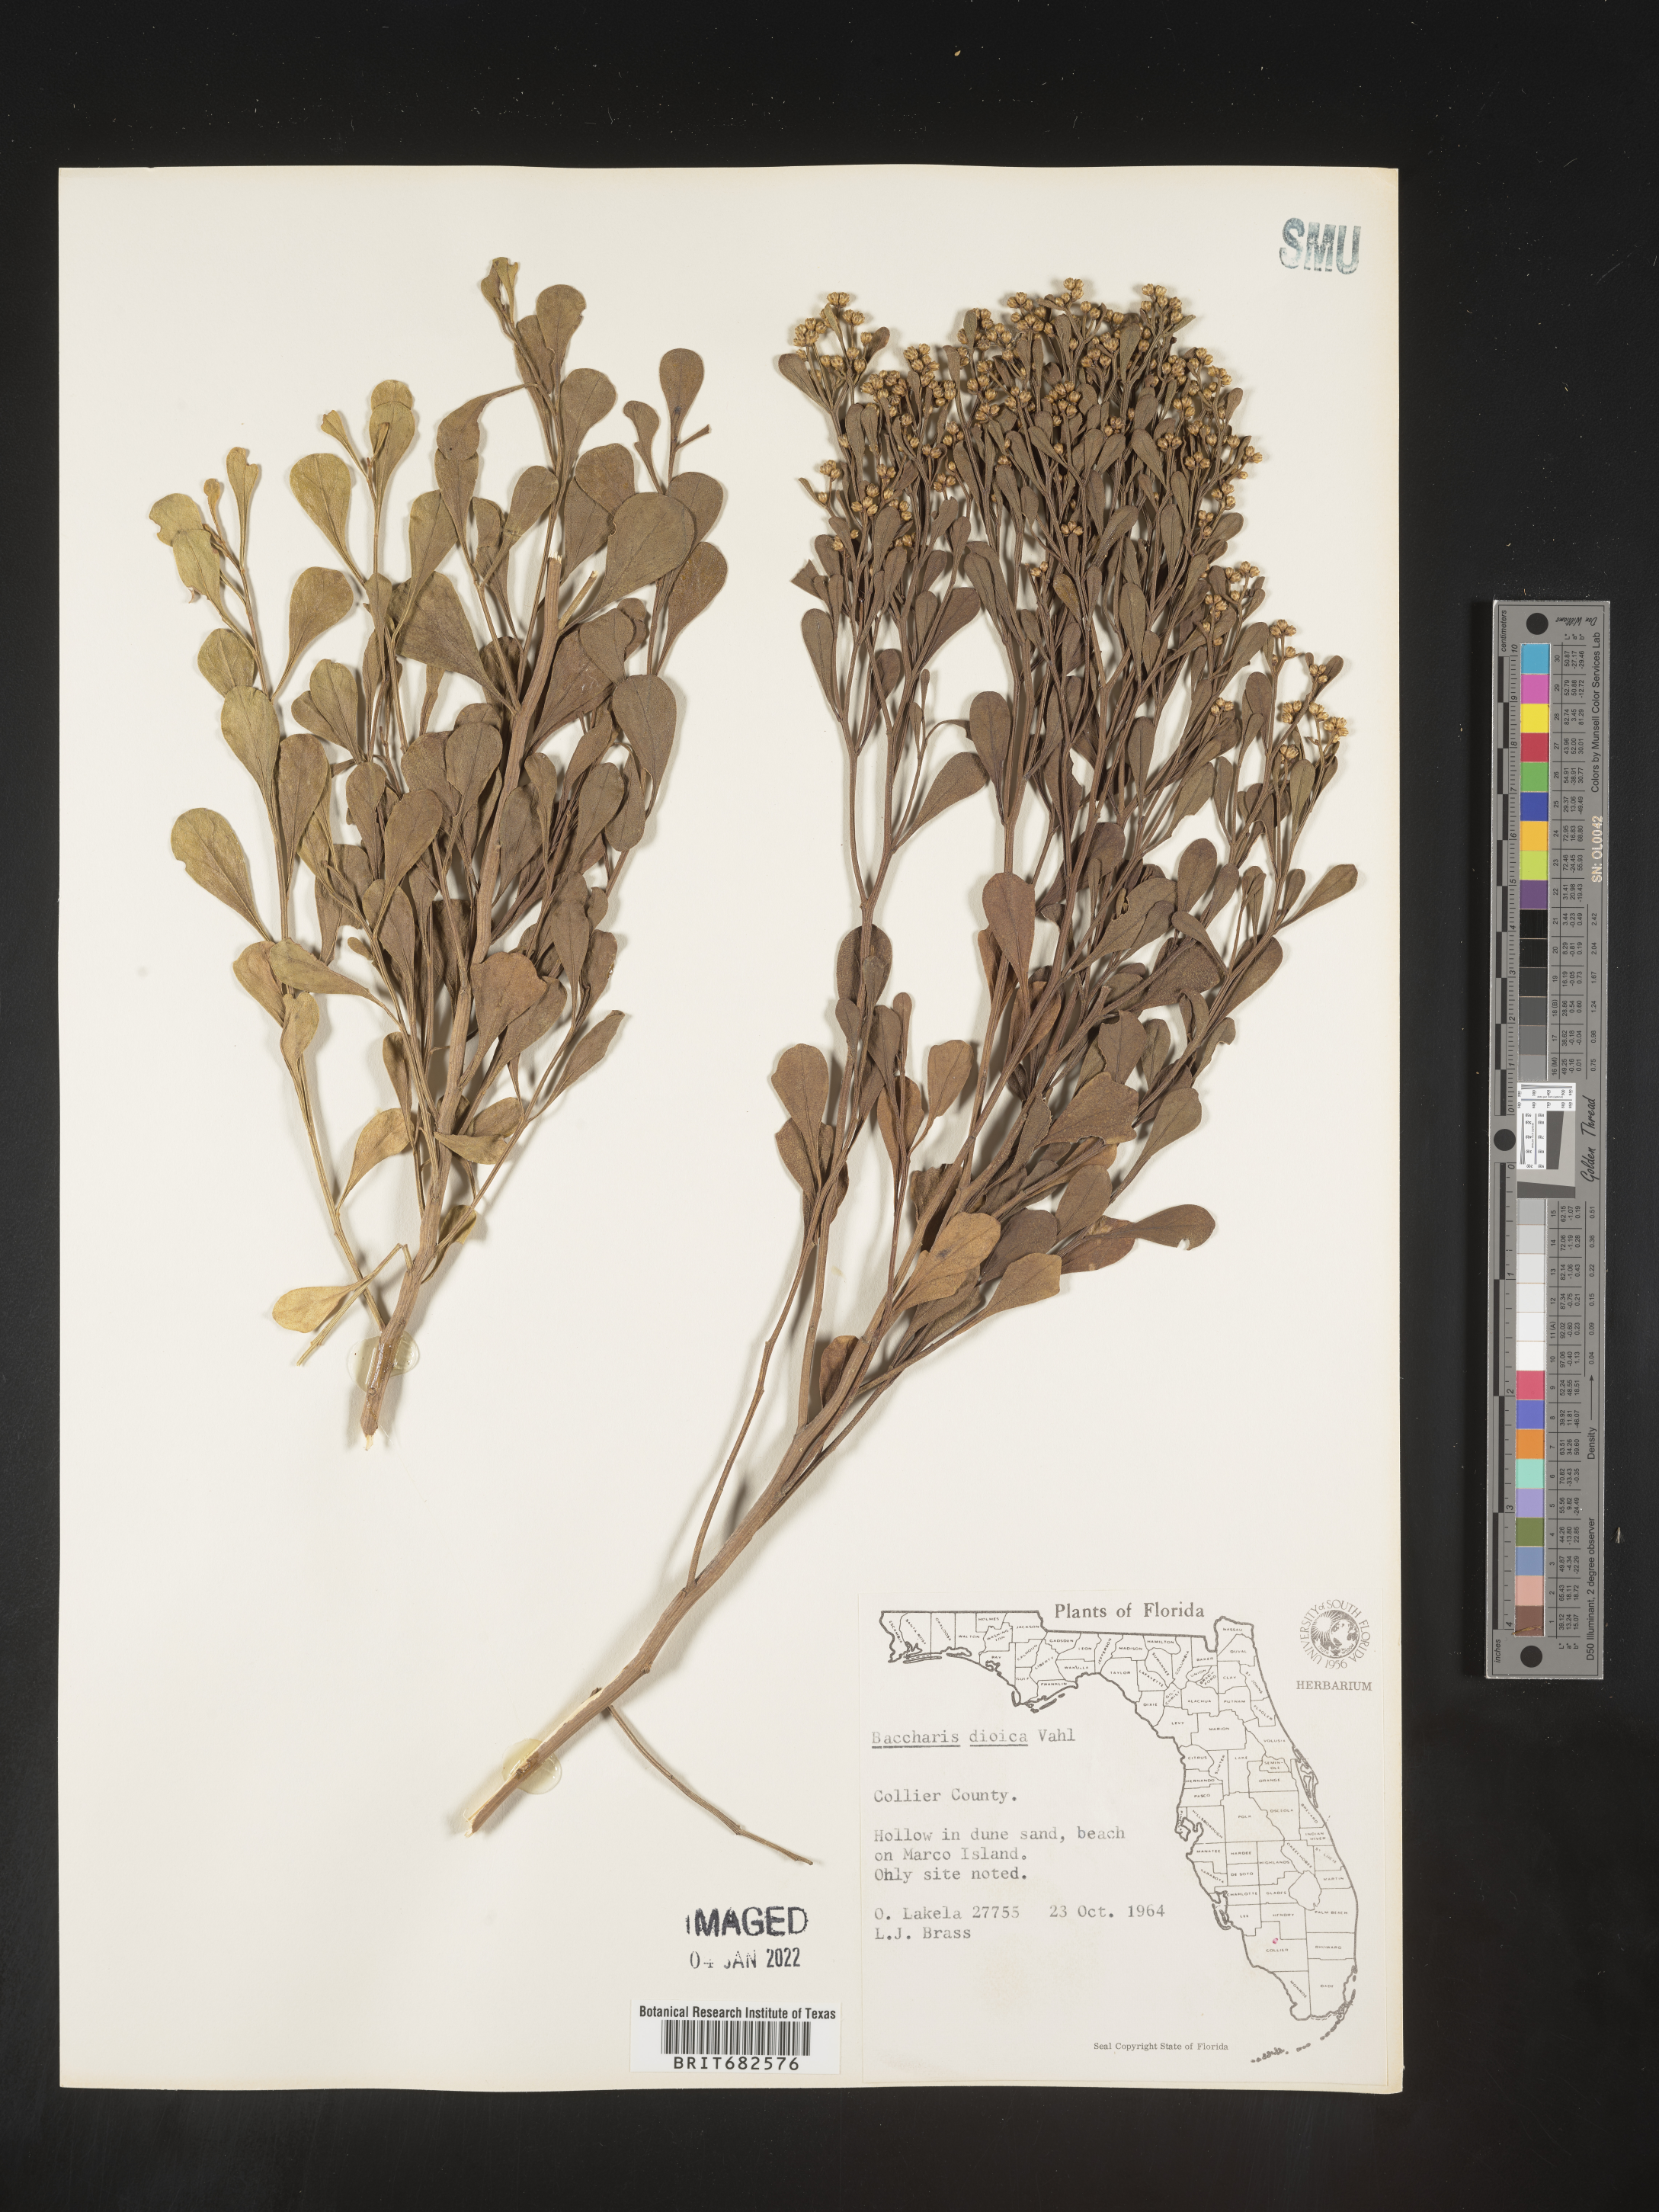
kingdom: Plantae
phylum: Tracheophyta
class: Magnoliopsida
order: Asterales
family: Asteraceae
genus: Baccharis
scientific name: Baccharis dioica
